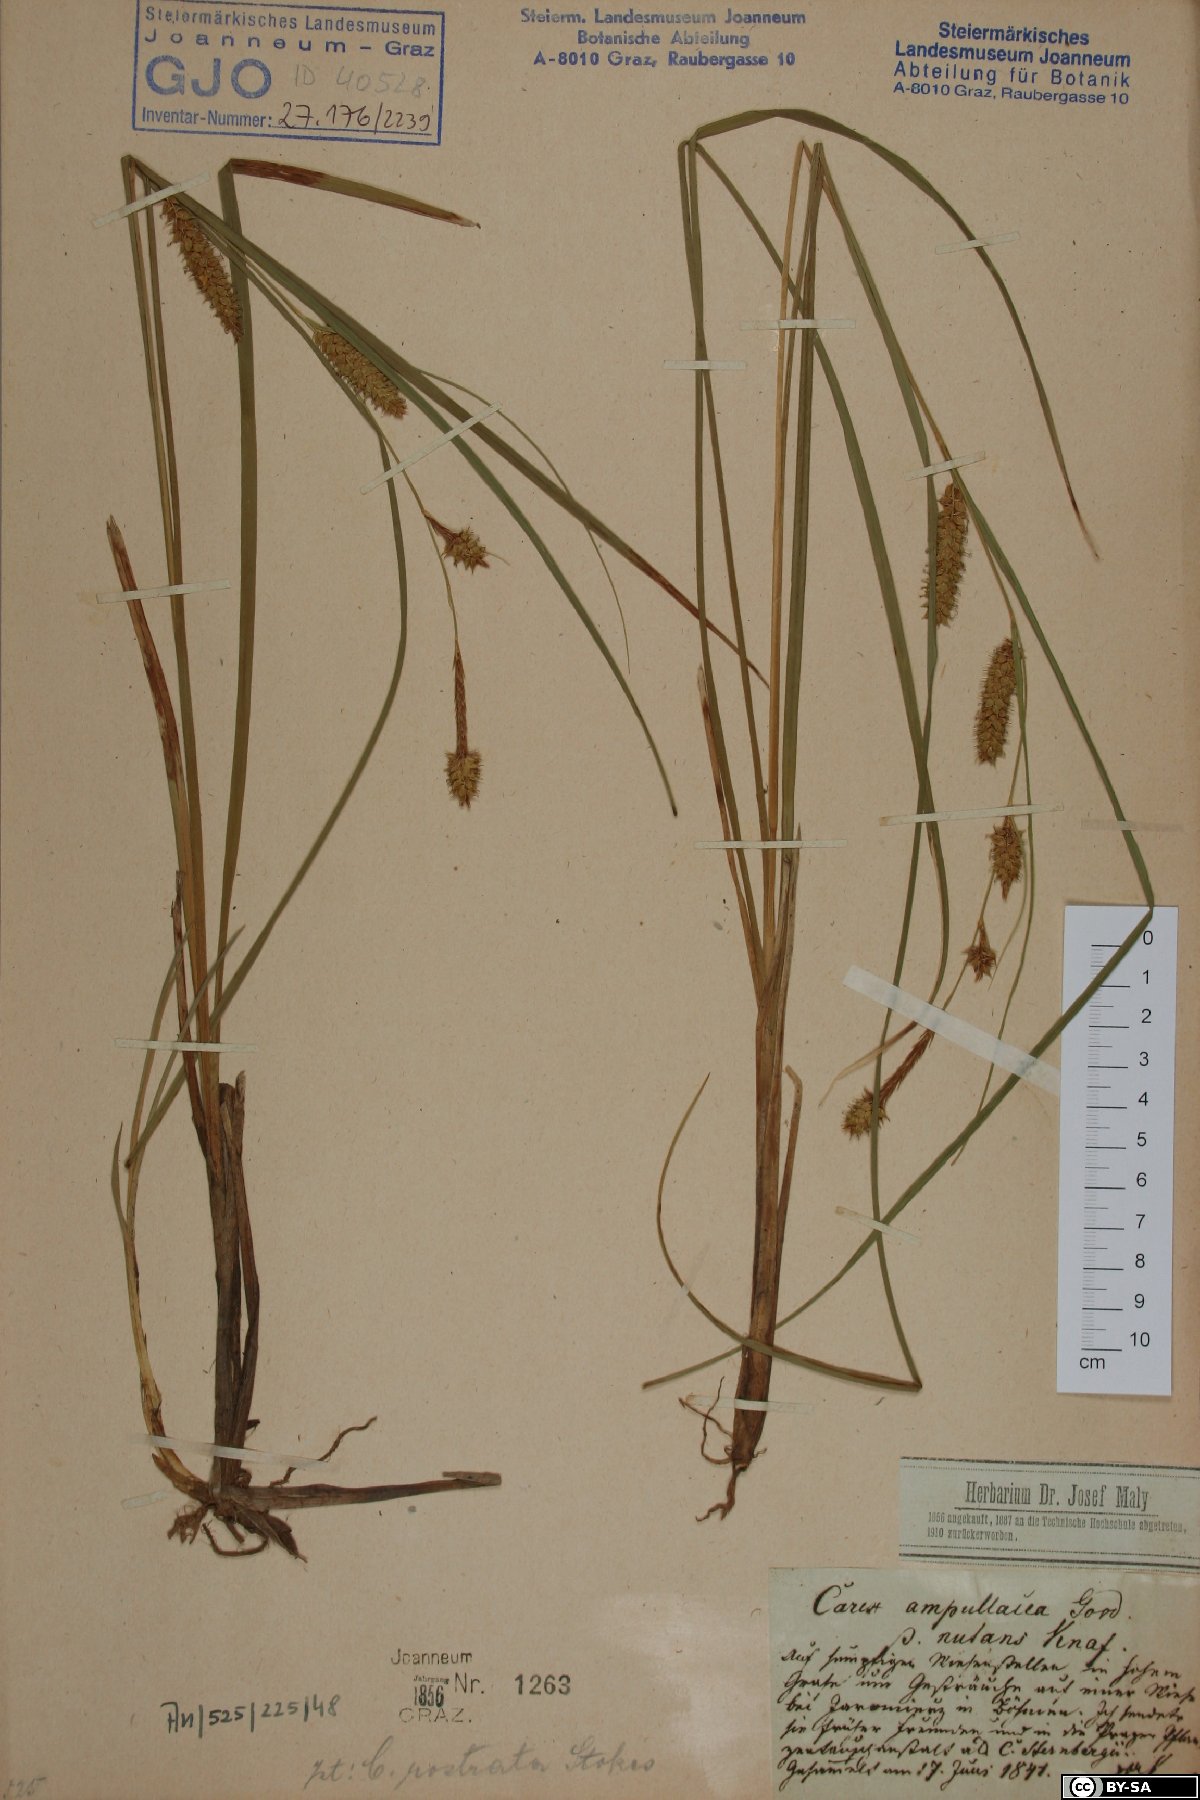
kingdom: Plantae
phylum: Tracheophyta
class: Liliopsida
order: Poales
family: Cyperaceae
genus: Carex
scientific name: Carex rostrata
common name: Bottle sedge
